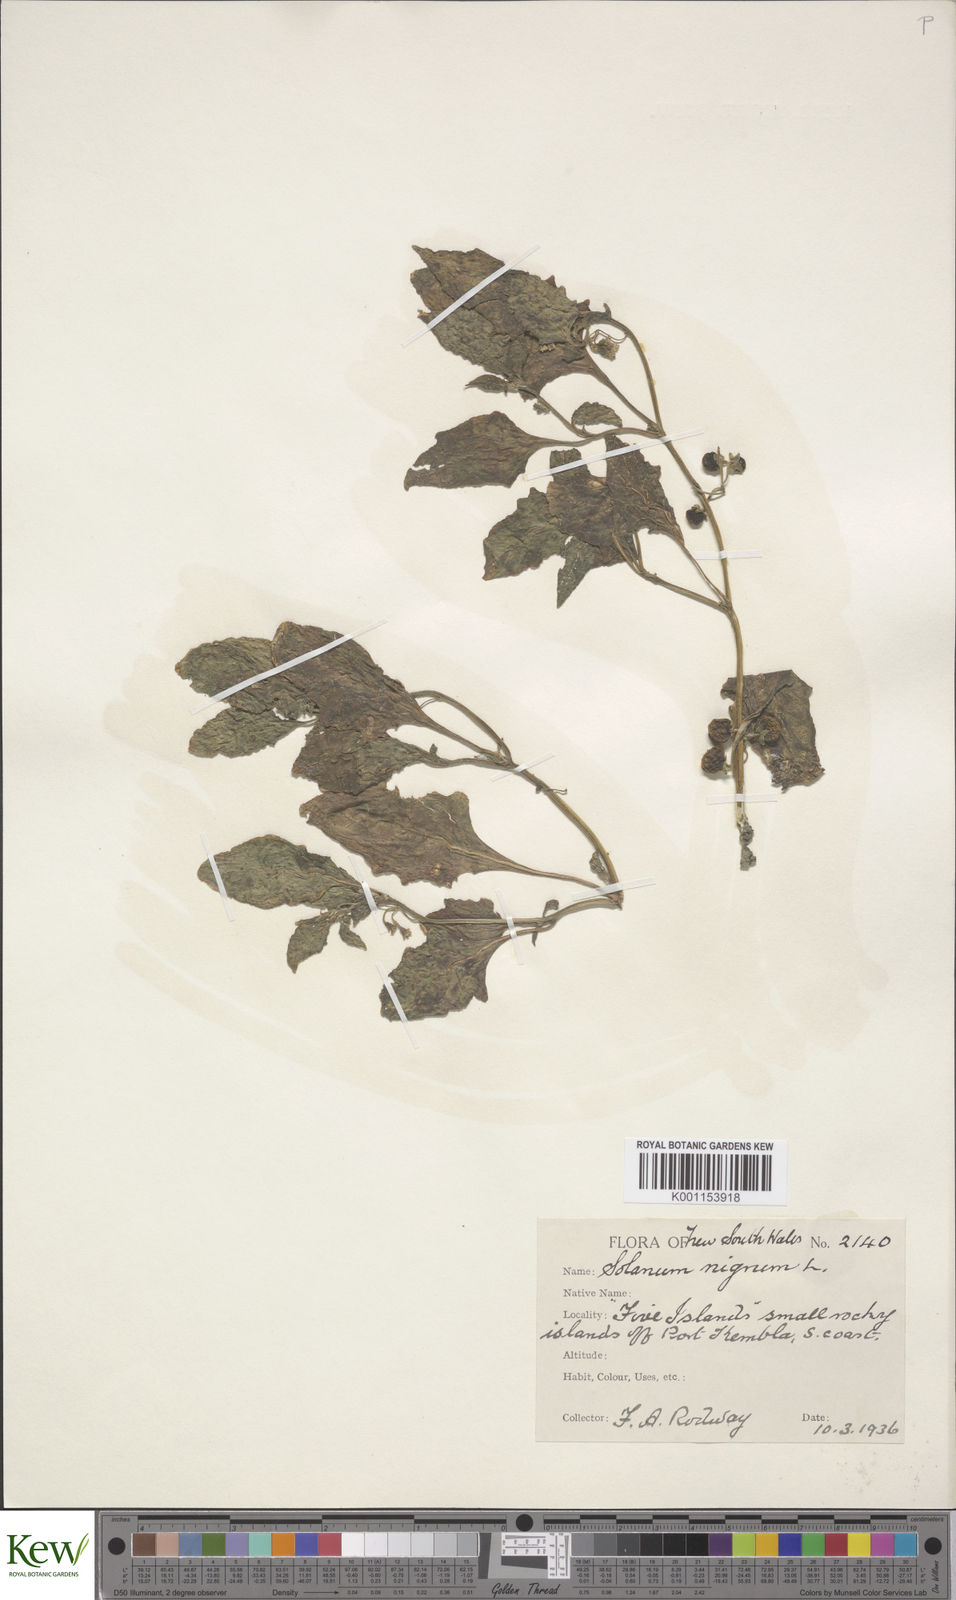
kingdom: Plantae
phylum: Tracheophyta
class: Magnoliopsida
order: Solanales
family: Solanaceae
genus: Solanum
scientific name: Solanum nigrum
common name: Black nightshade
